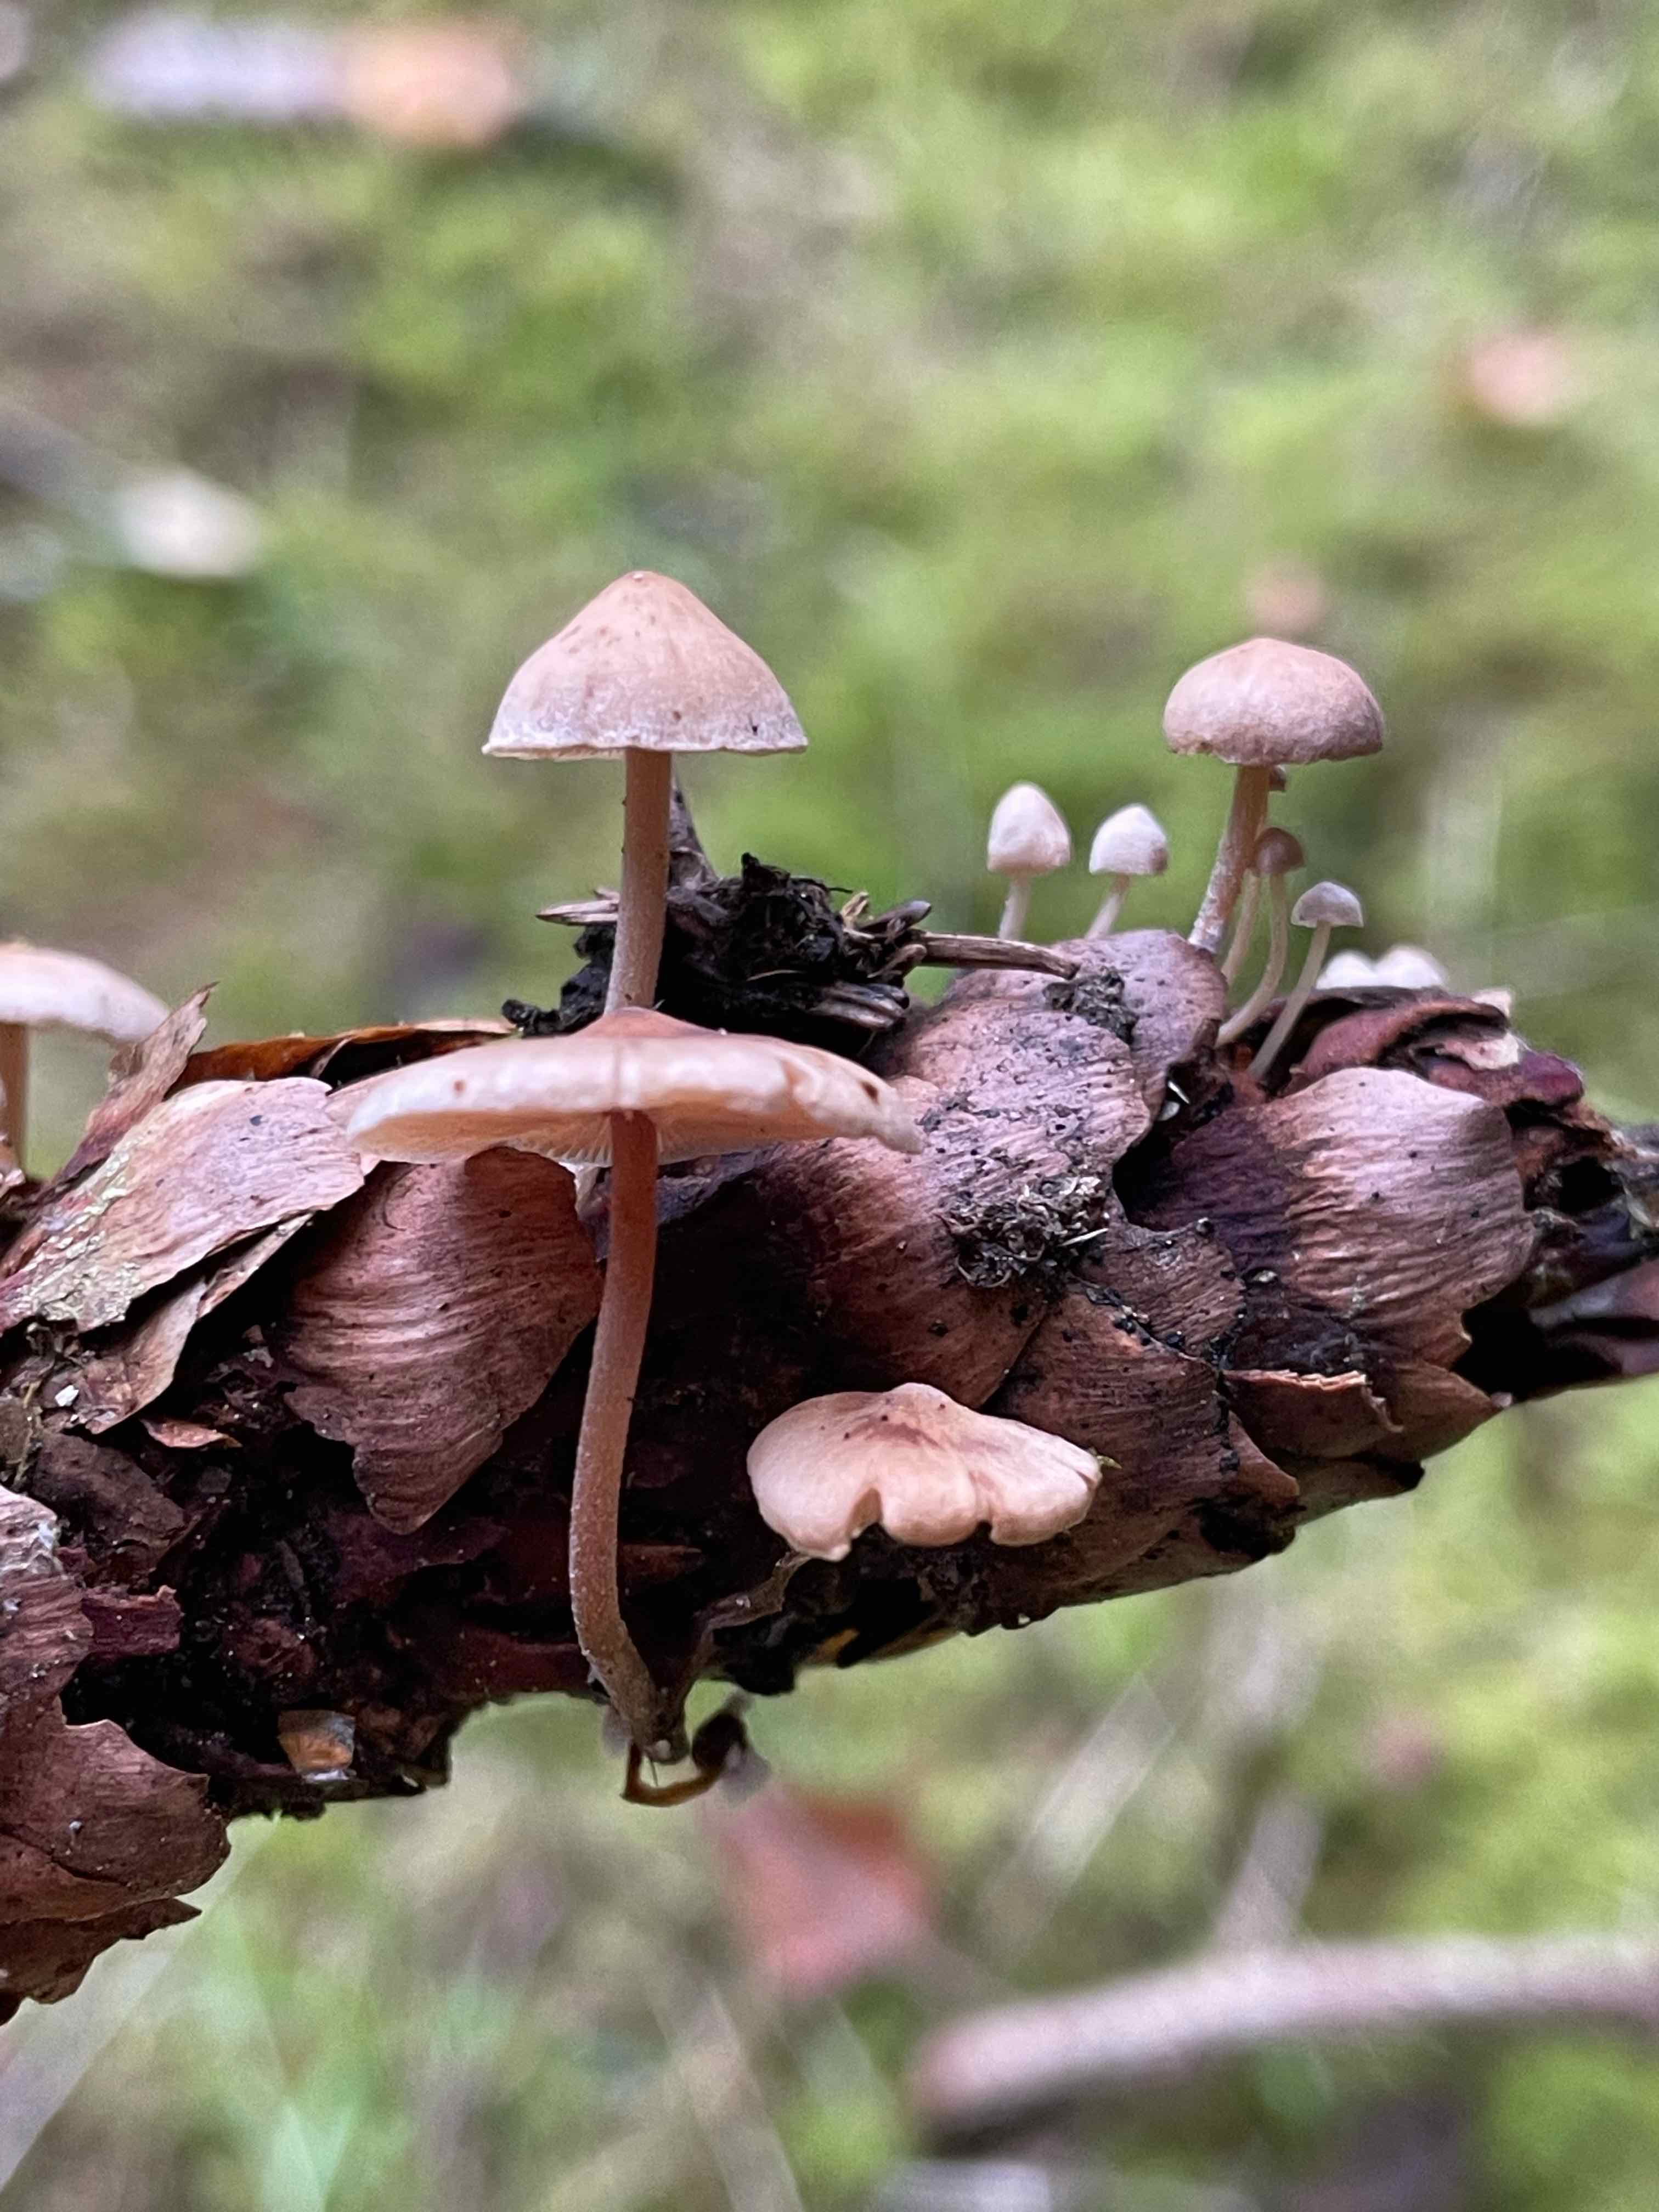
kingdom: Fungi
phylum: Basidiomycota
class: Agaricomycetes
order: Agaricales
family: Marasmiaceae
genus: Baeospora
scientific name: Baeospora myosura
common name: koglebruskhat
